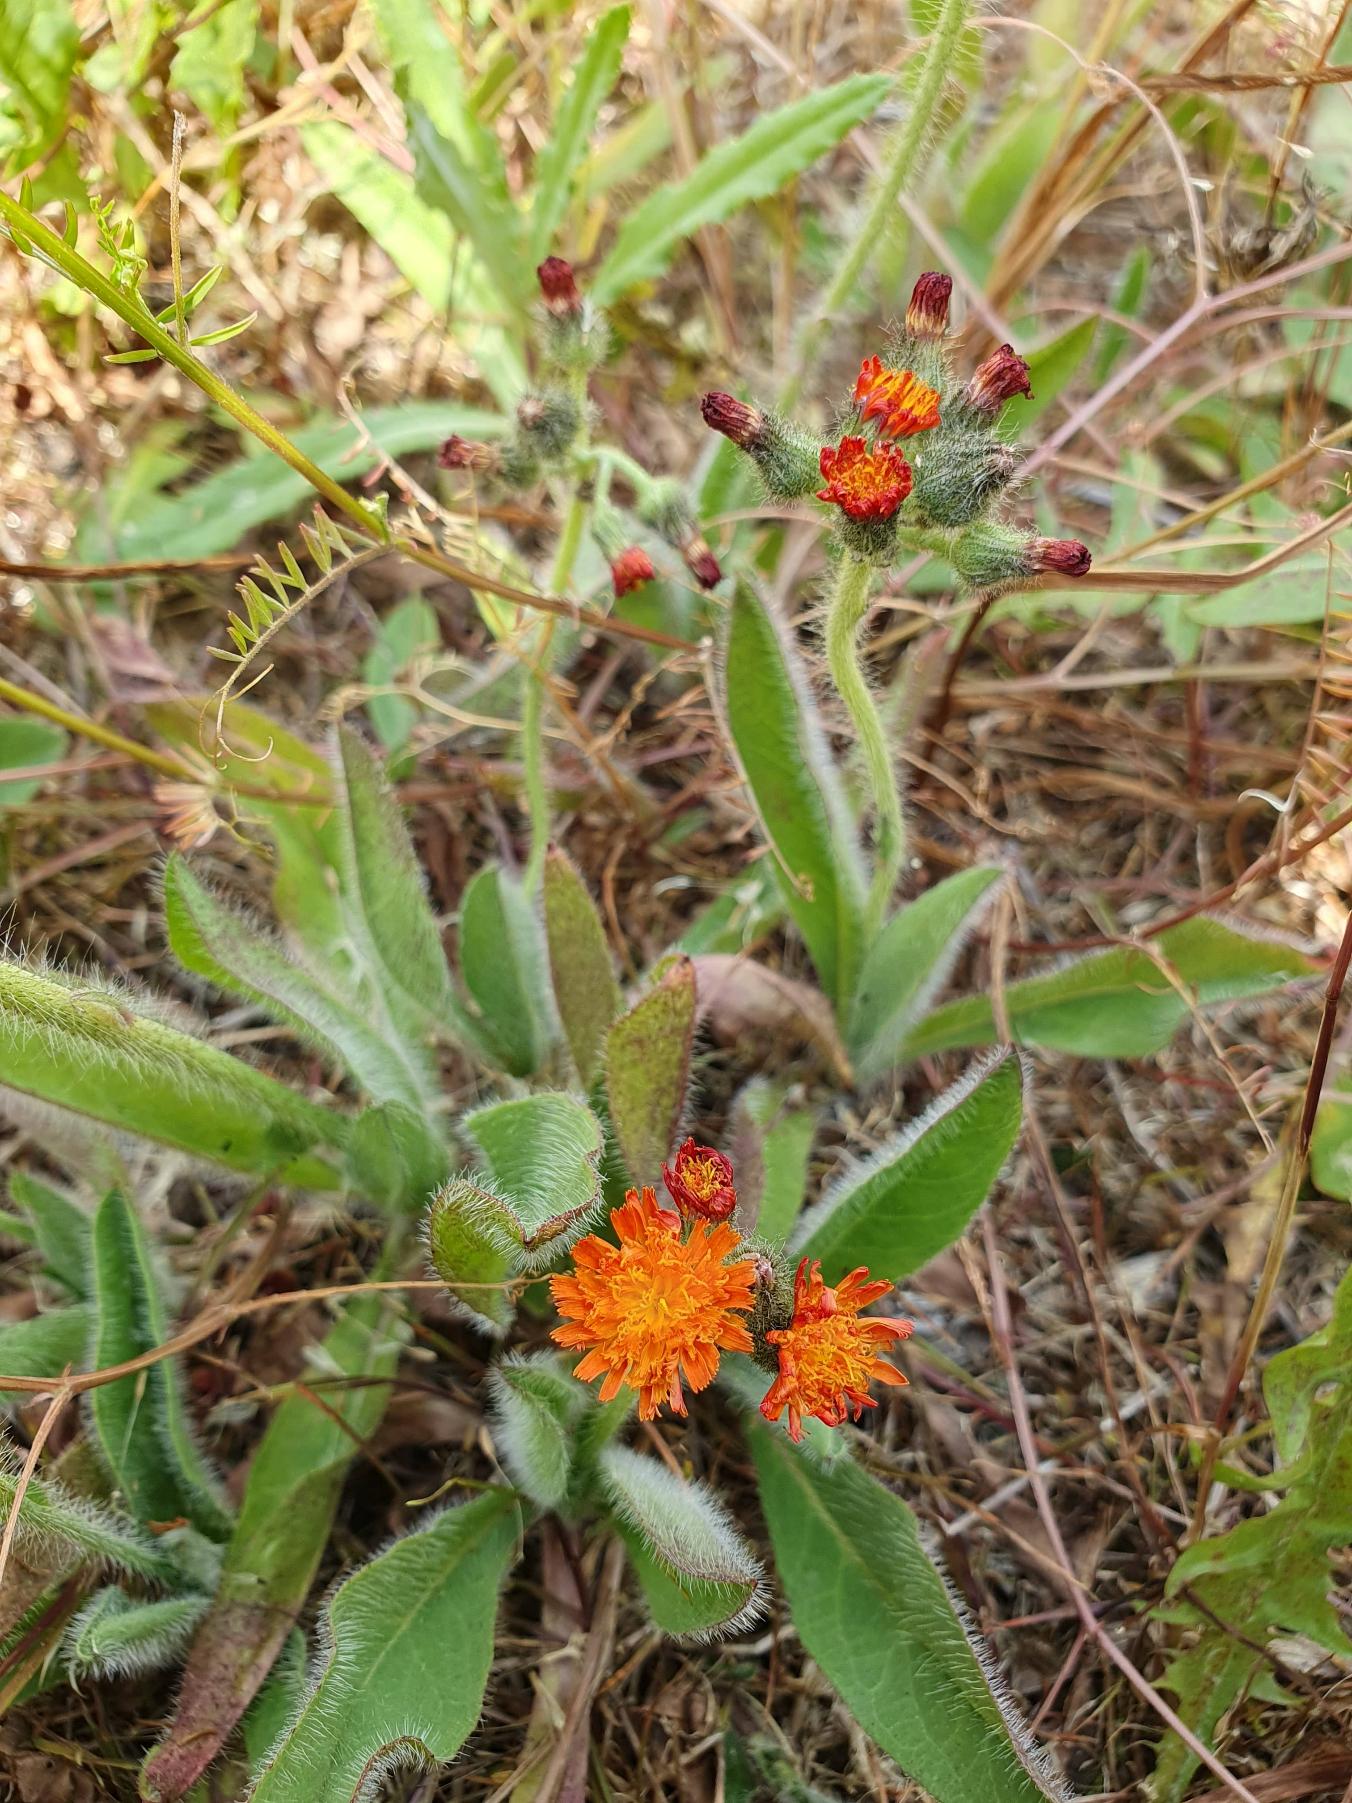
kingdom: Plantae
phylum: Tracheophyta
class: Magnoliopsida
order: Asterales
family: Asteraceae
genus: Pilosella
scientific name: Pilosella aurantiaca
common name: Pomerans-høgeurt
